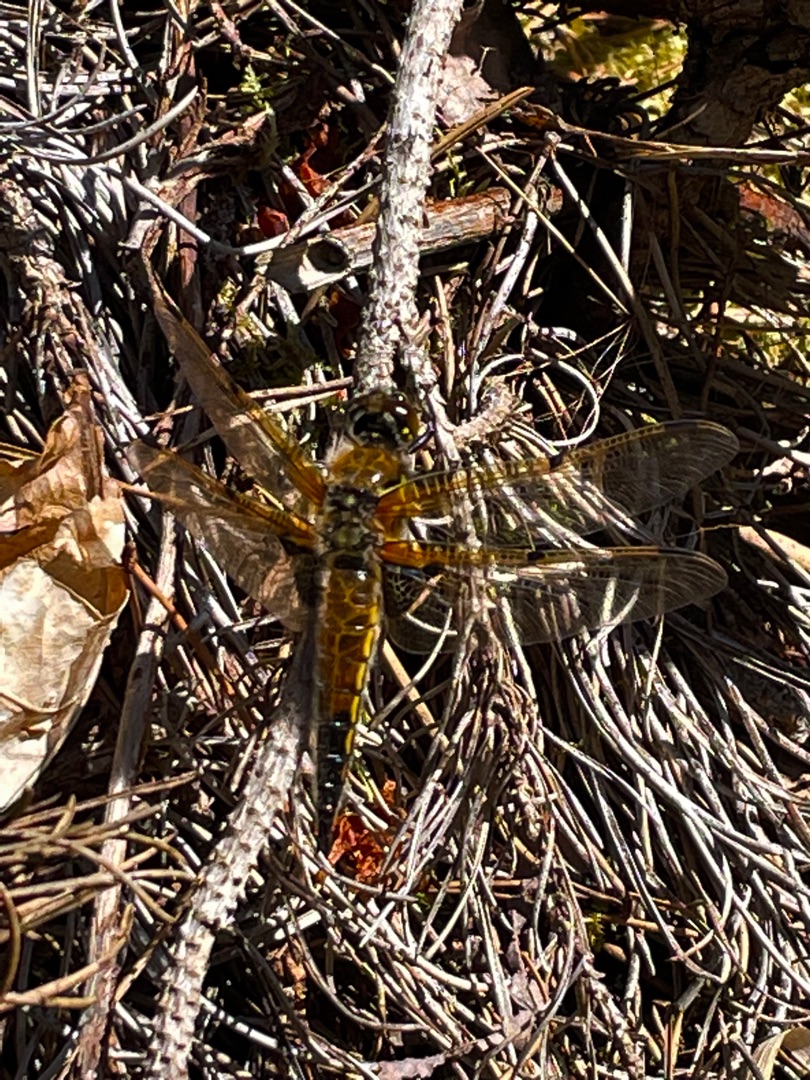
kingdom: Animalia
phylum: Arthropoda
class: Insecta
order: Odonata
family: Libellulidae
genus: Libellula
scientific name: Libellula quadrimaculata
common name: Fireplettet libel
